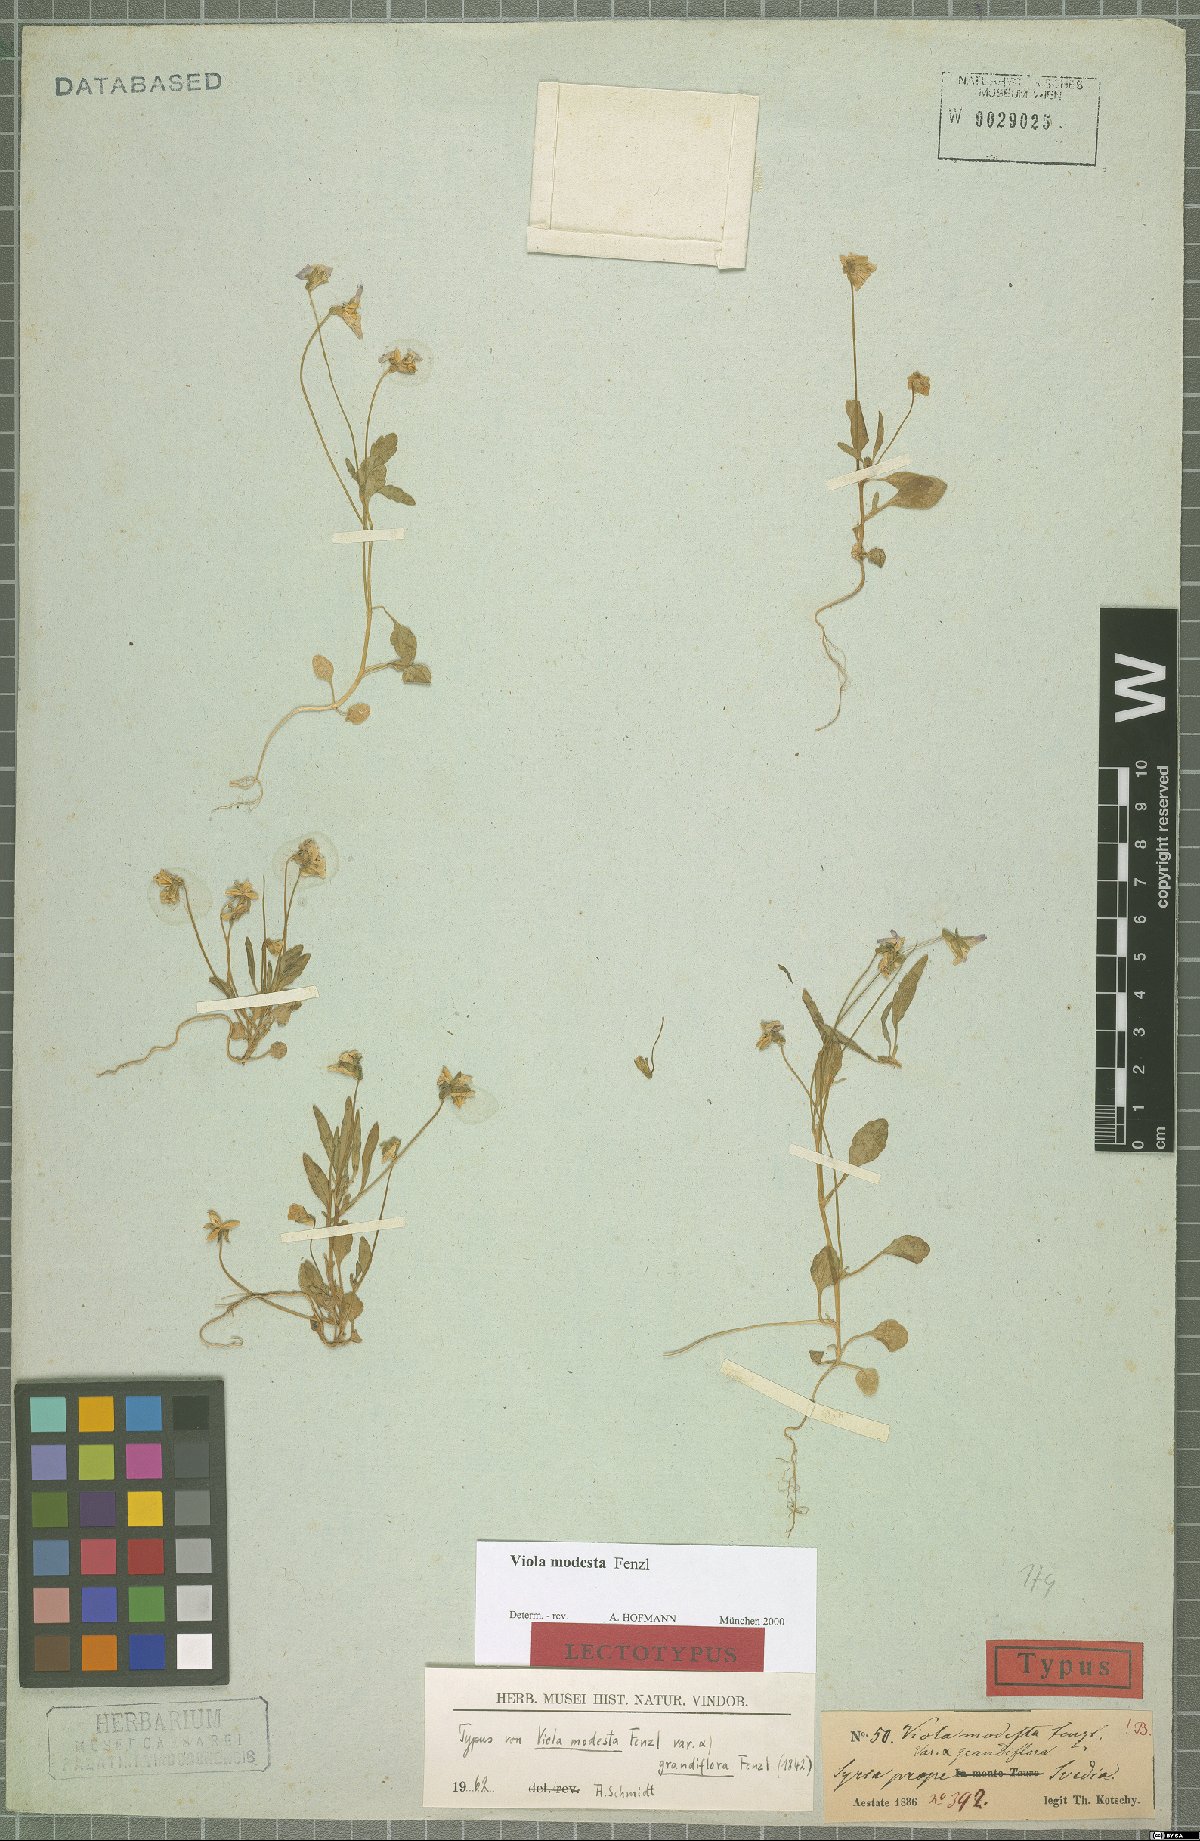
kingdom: Plantae
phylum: Tracheophyta
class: Magnoliopsida
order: Malpighiales
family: Violaceae
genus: Viola
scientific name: Viola modesta
